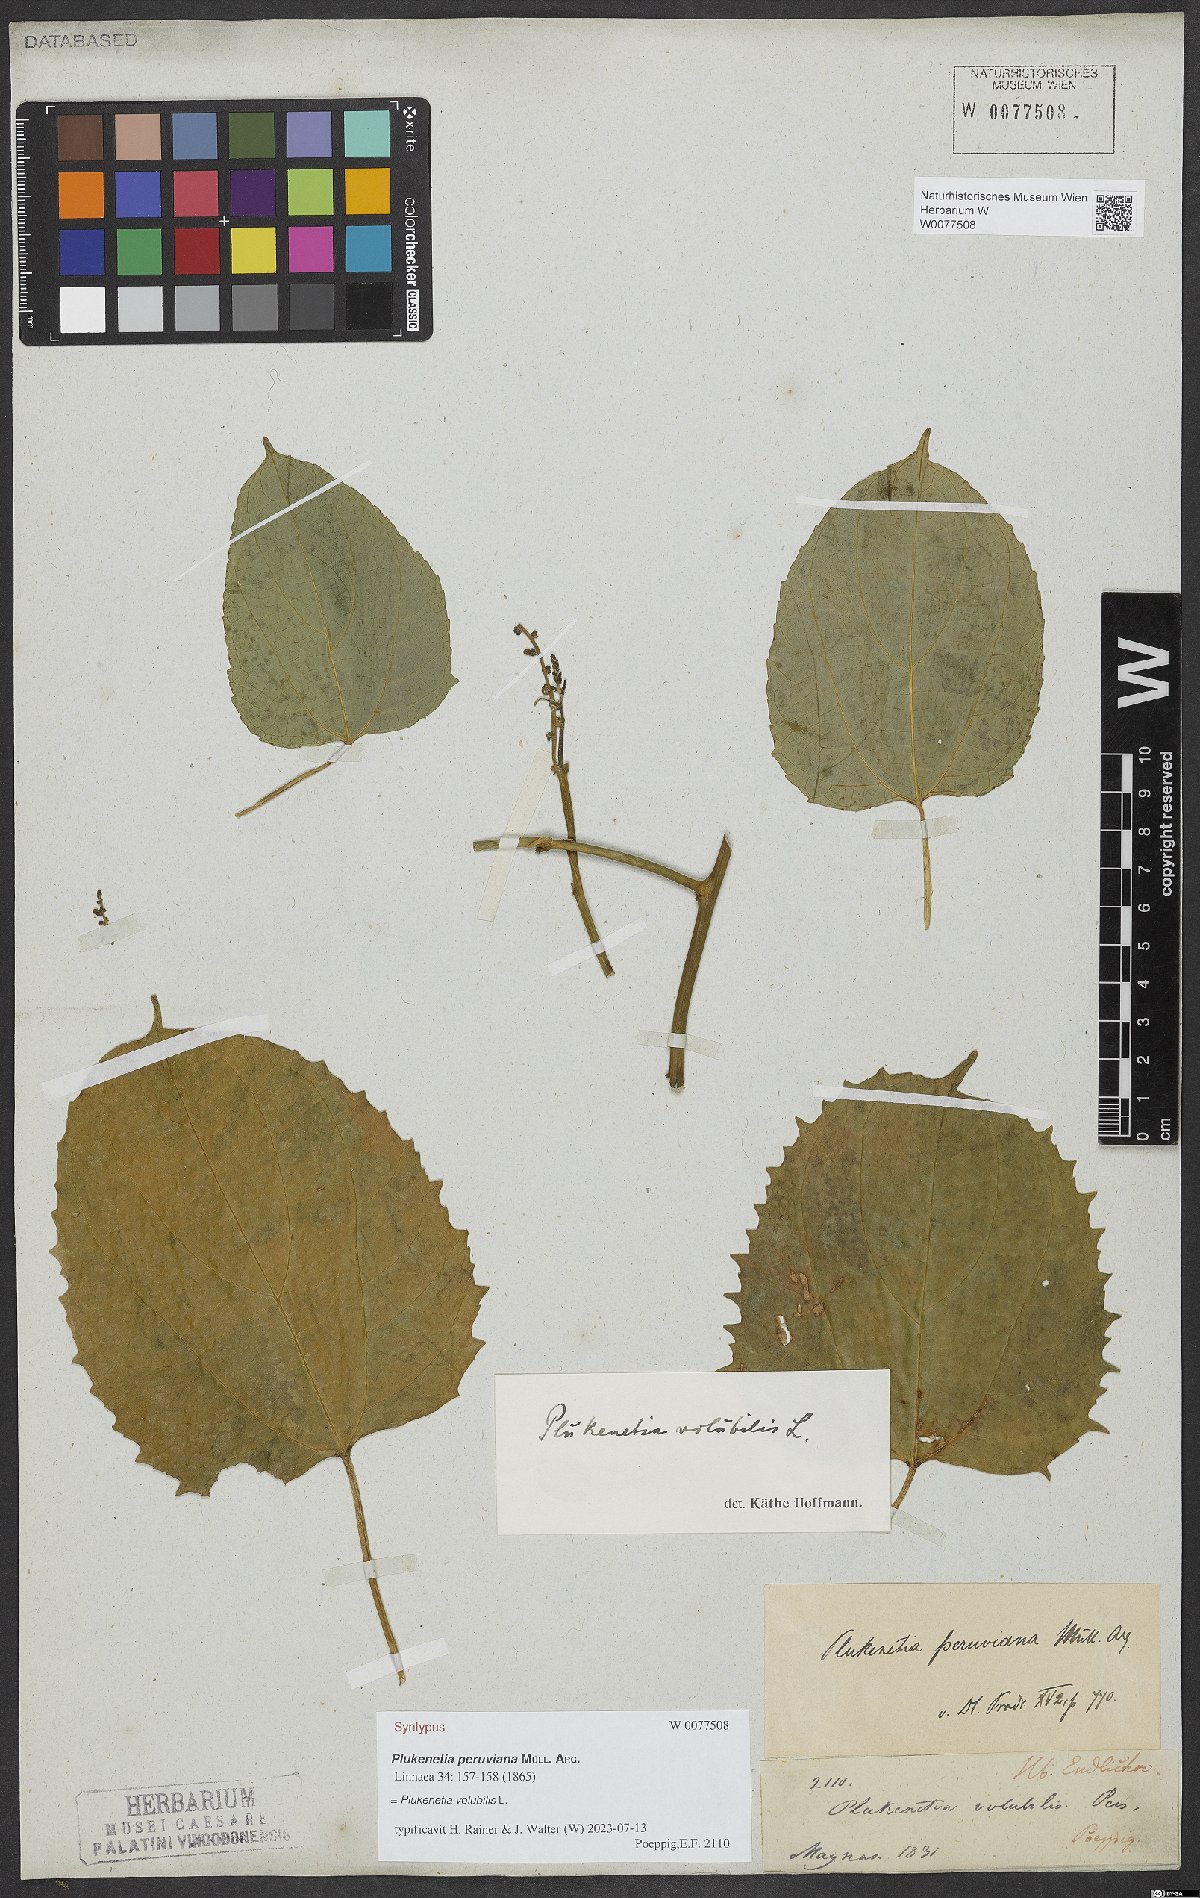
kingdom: Plantae
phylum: Tracheophyta
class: Magnoliopsida
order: Malpighiales
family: Euphorbiaceae
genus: Plukenetia
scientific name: Plukenetia volubilis
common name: Inca-peanut
